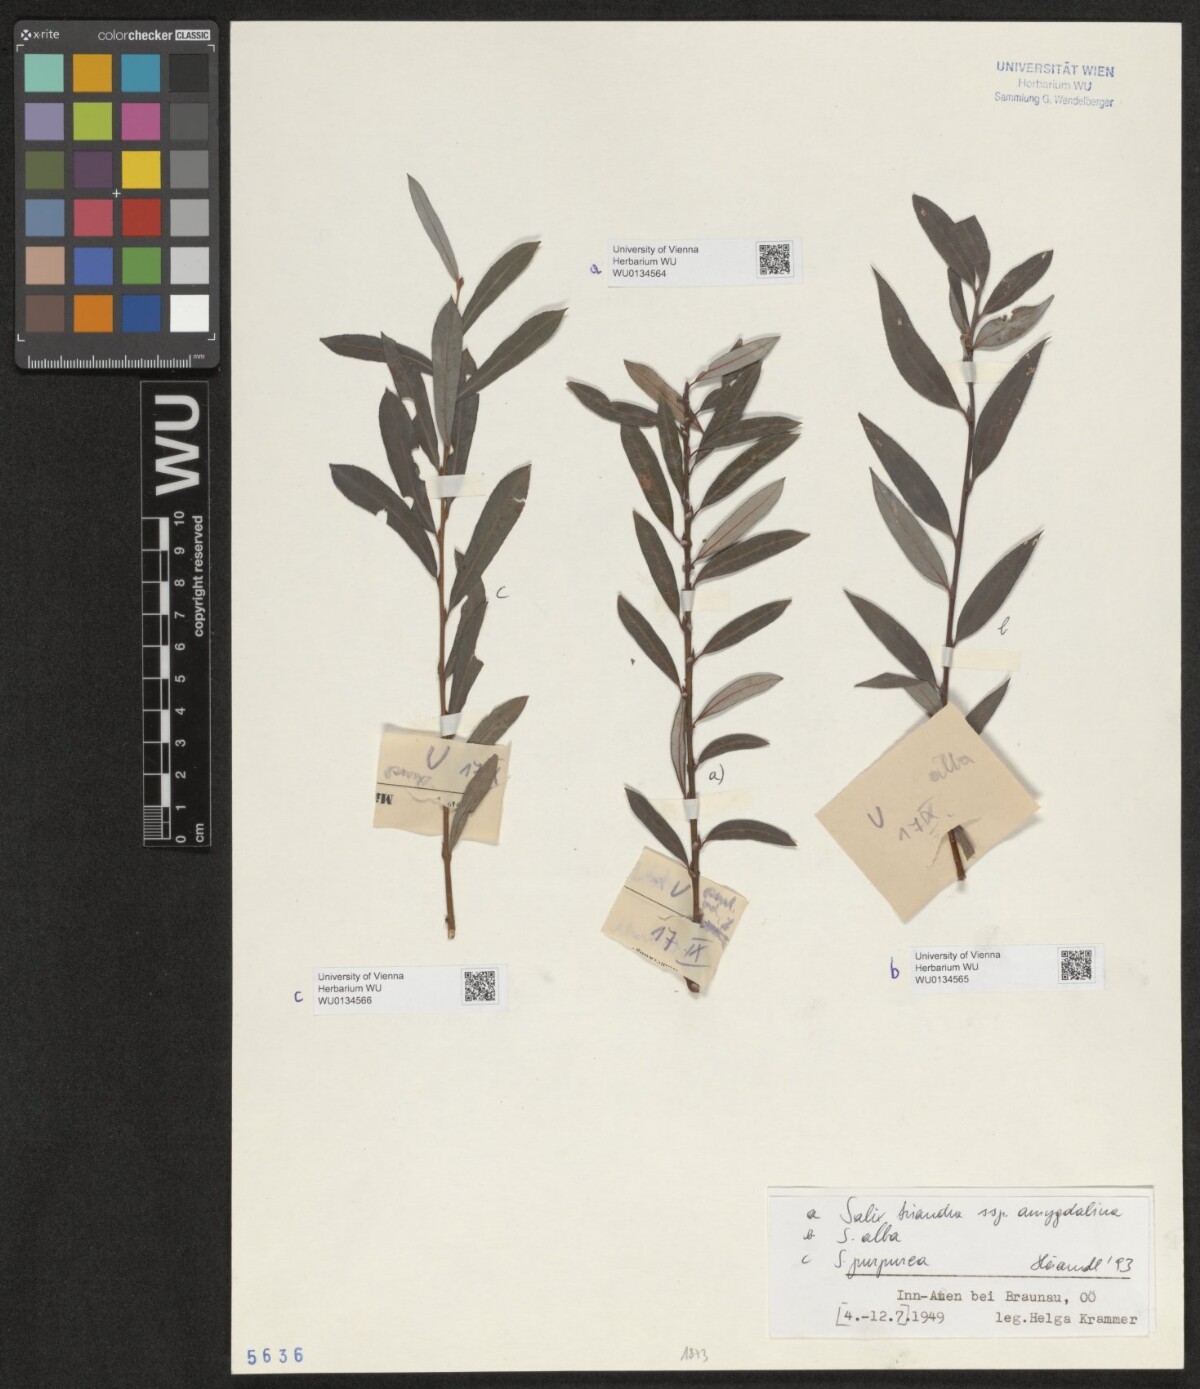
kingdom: Plantae
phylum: Tracheophyta
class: Magnoliopsida
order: Malpighiales
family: Salicaceae
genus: Salix
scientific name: Salix alba
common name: White willow
